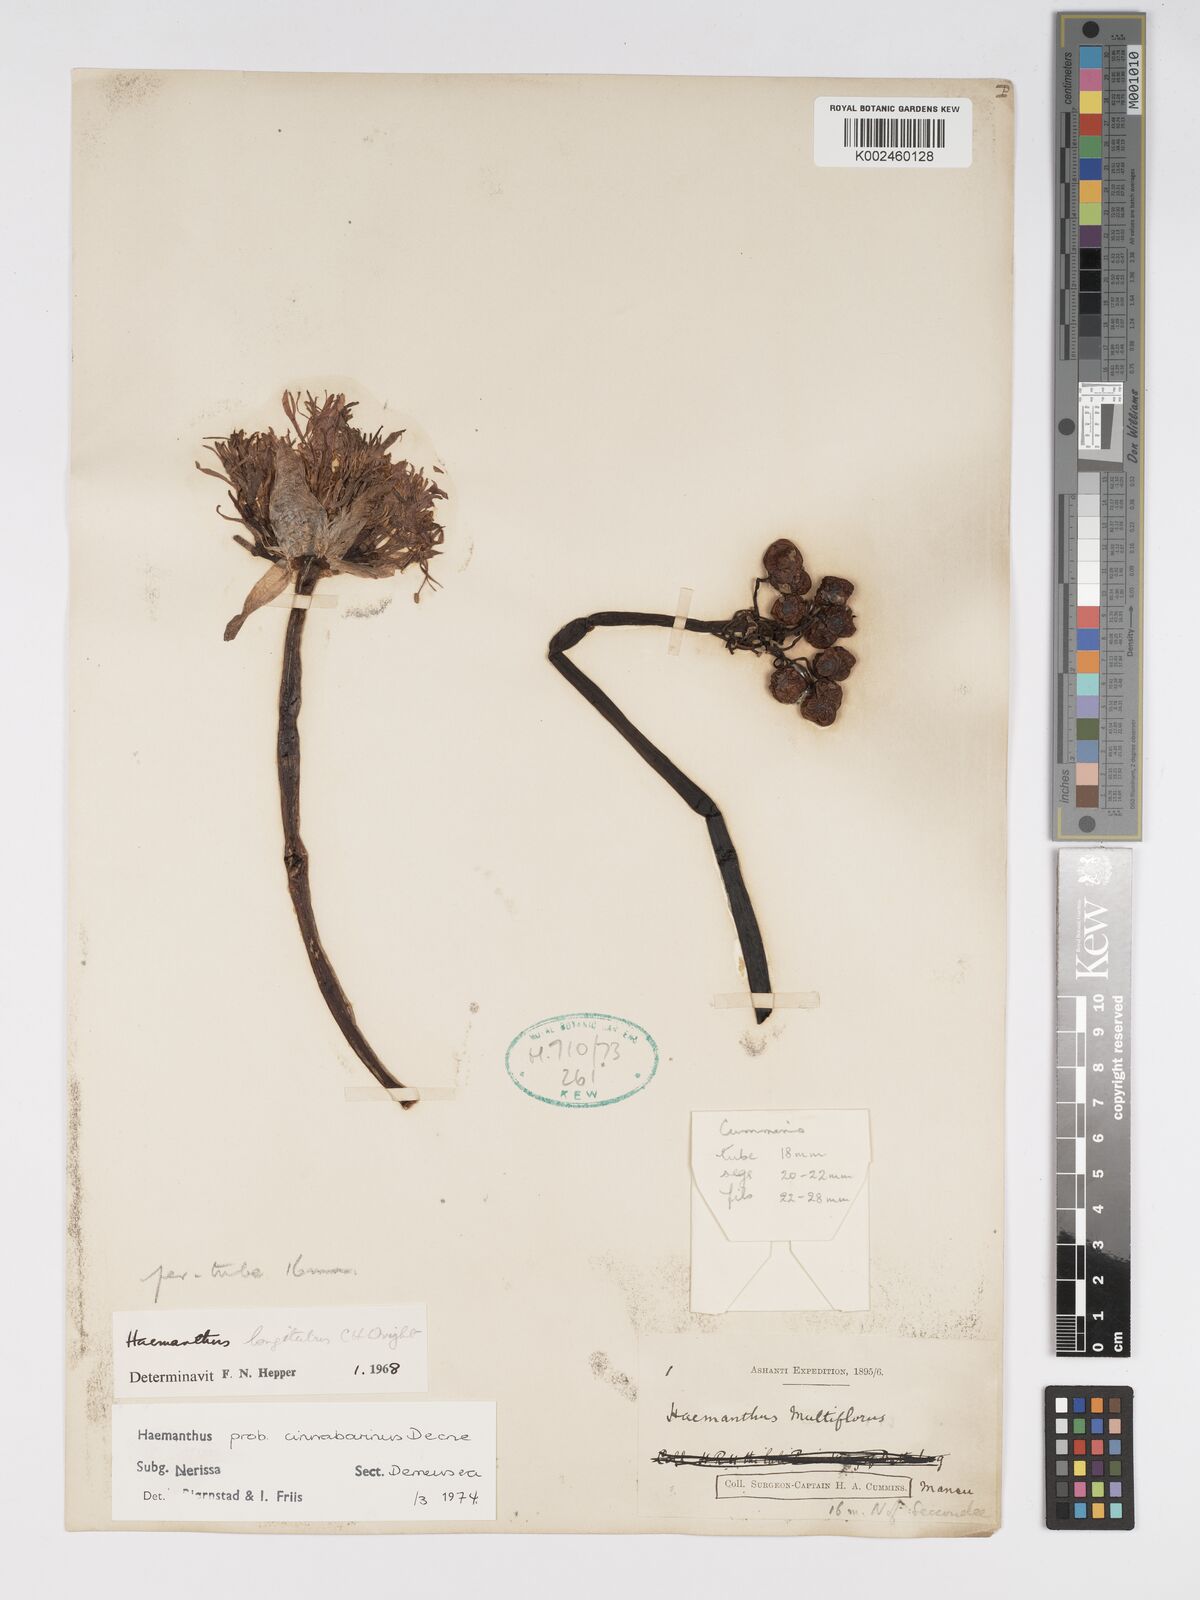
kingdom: Plantae
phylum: Tracheophyta
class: Liliopsida
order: Asparagales
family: Amaryllidaceae
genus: Scadoxus
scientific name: Scadoxus cinnabarinus
